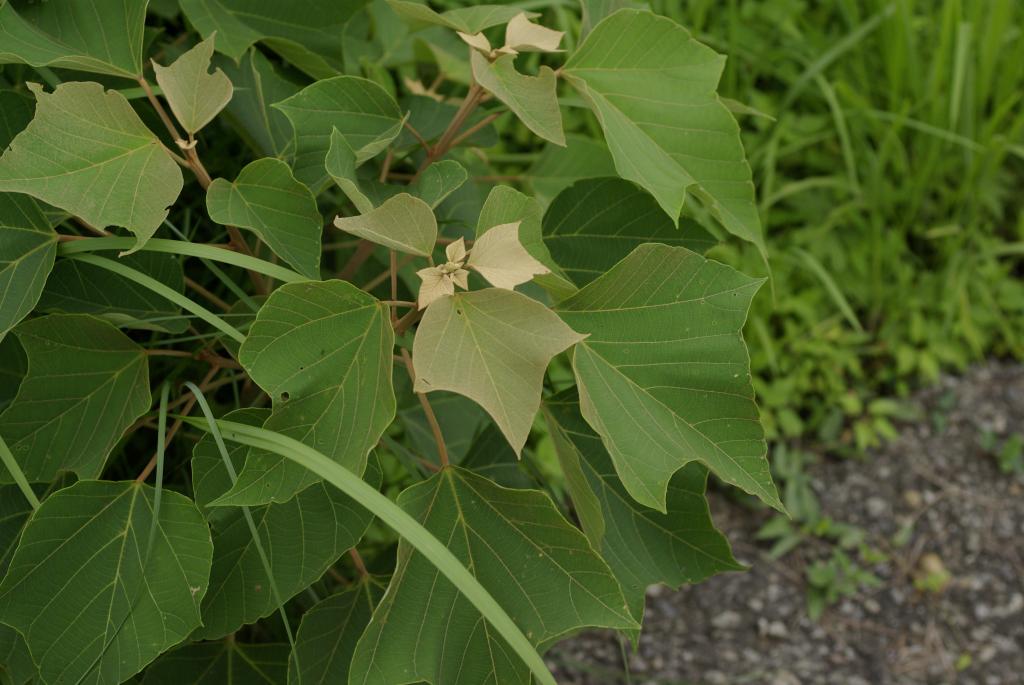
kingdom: Plantae
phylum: Tracheophyta
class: Magnoliopsida
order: Malpighiales
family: Euphorbiaceae
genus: Mallotus
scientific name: Mallotus japonicus
